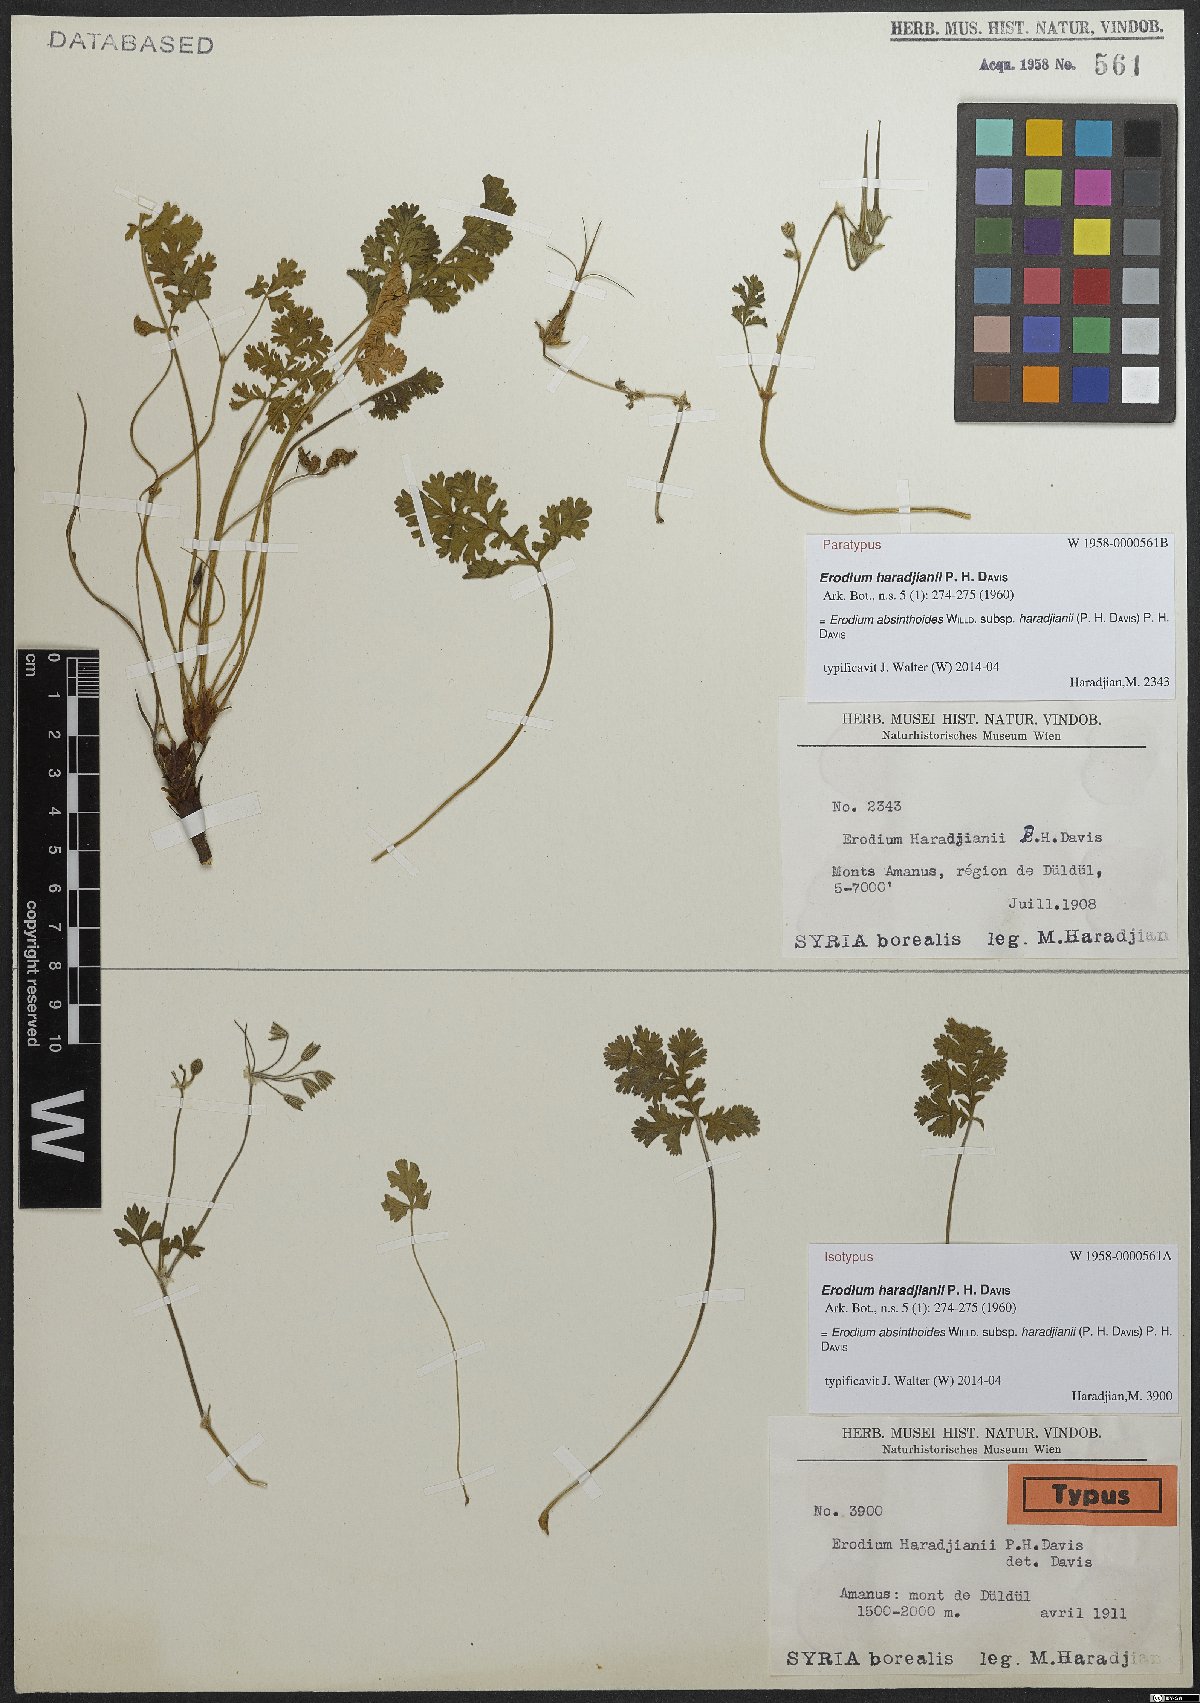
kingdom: Plantae
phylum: Tracheophyta
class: Magnoliopsida
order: Geraniales
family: Geraniaceae
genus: Erodium
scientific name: Erodium absinthoides
